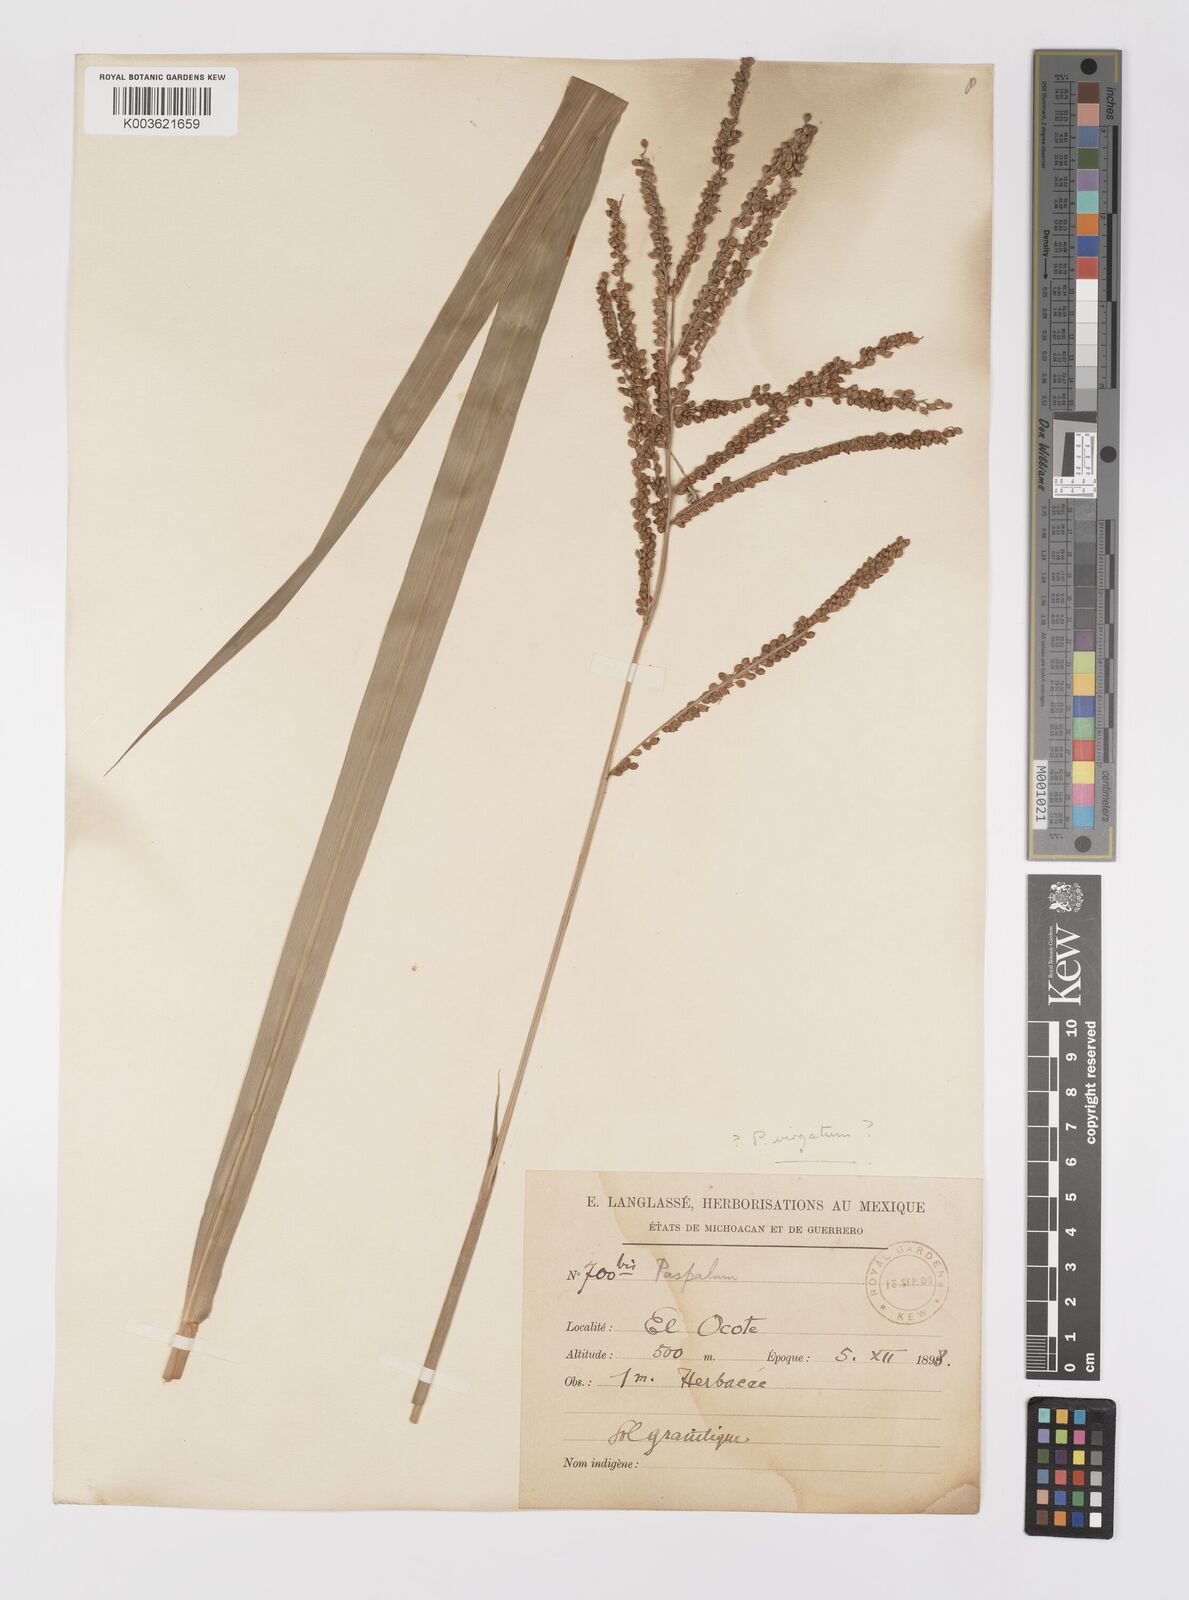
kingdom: Plantae
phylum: Tracheophyta
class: Liliopsida
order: Poales
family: Poaceae
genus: Paspalum
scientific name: Paspalum virgatum
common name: Talquezal
